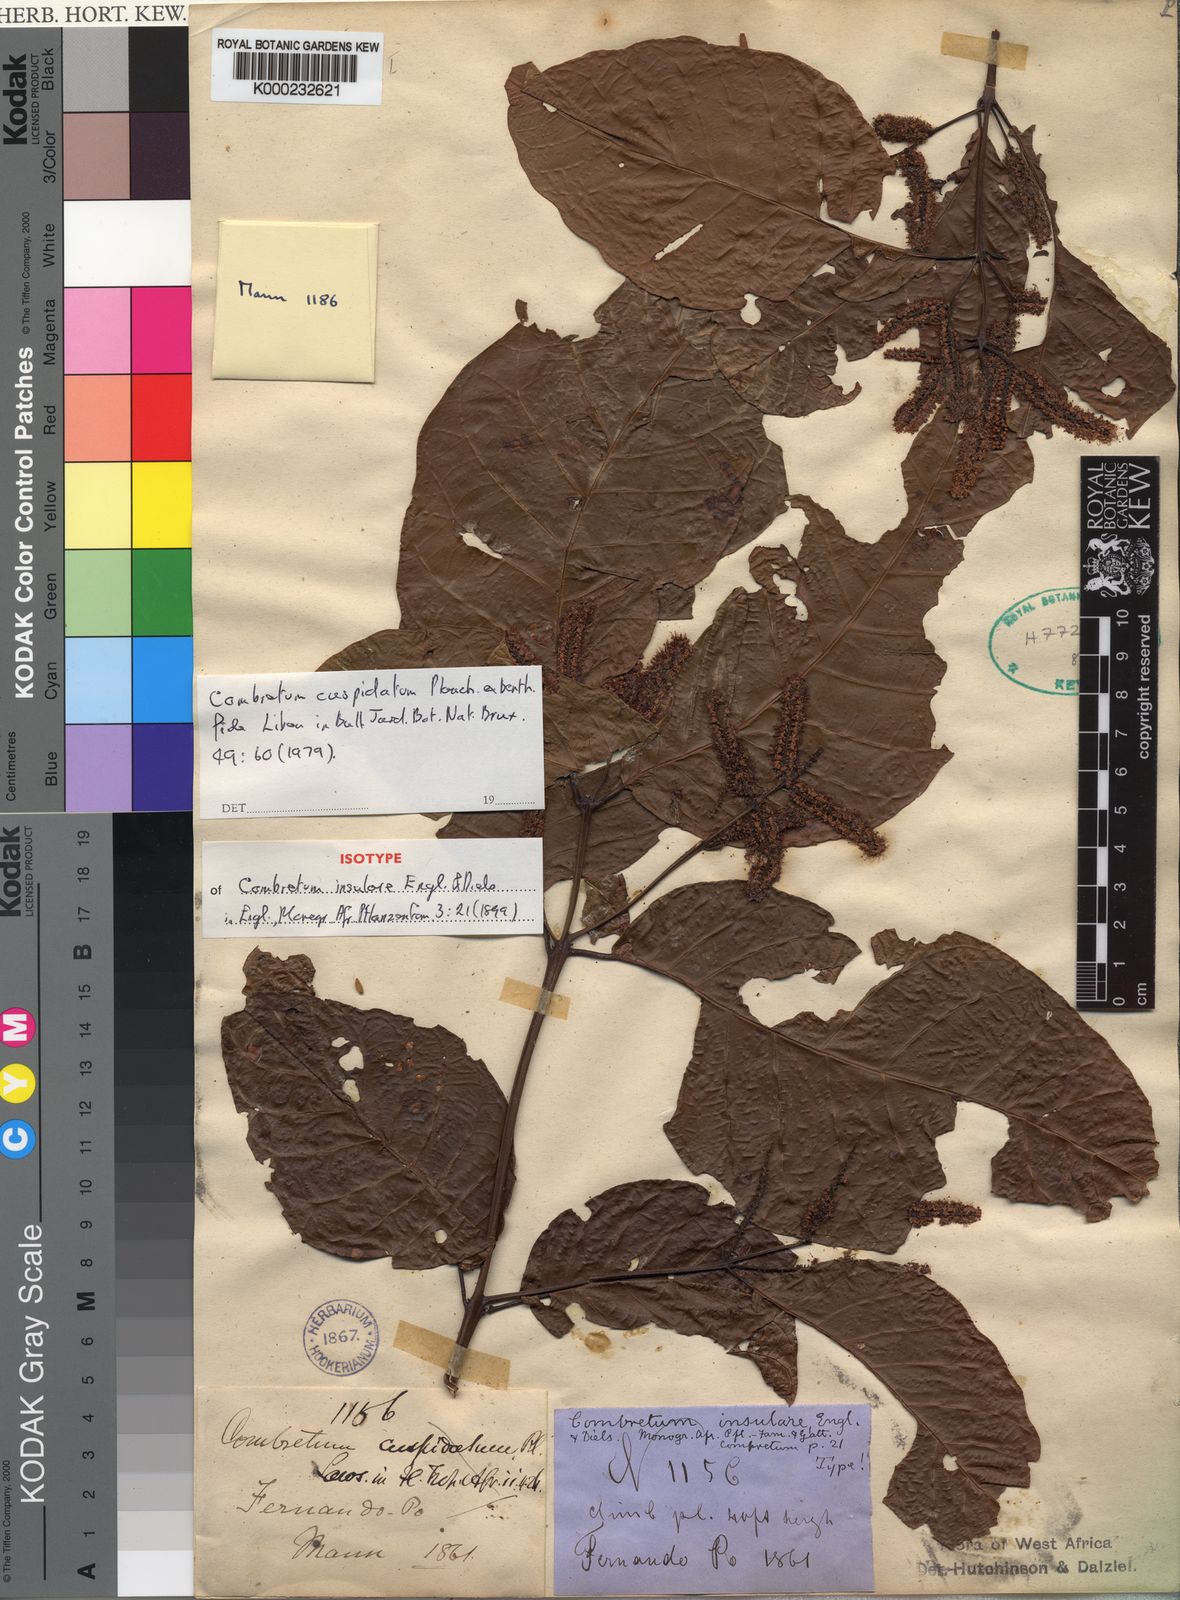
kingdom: Plantae
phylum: Tracheophyta
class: Magnoliopsida
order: Myrtales
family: Combretaceae
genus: Combretum
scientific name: Combretum cuspidatum
